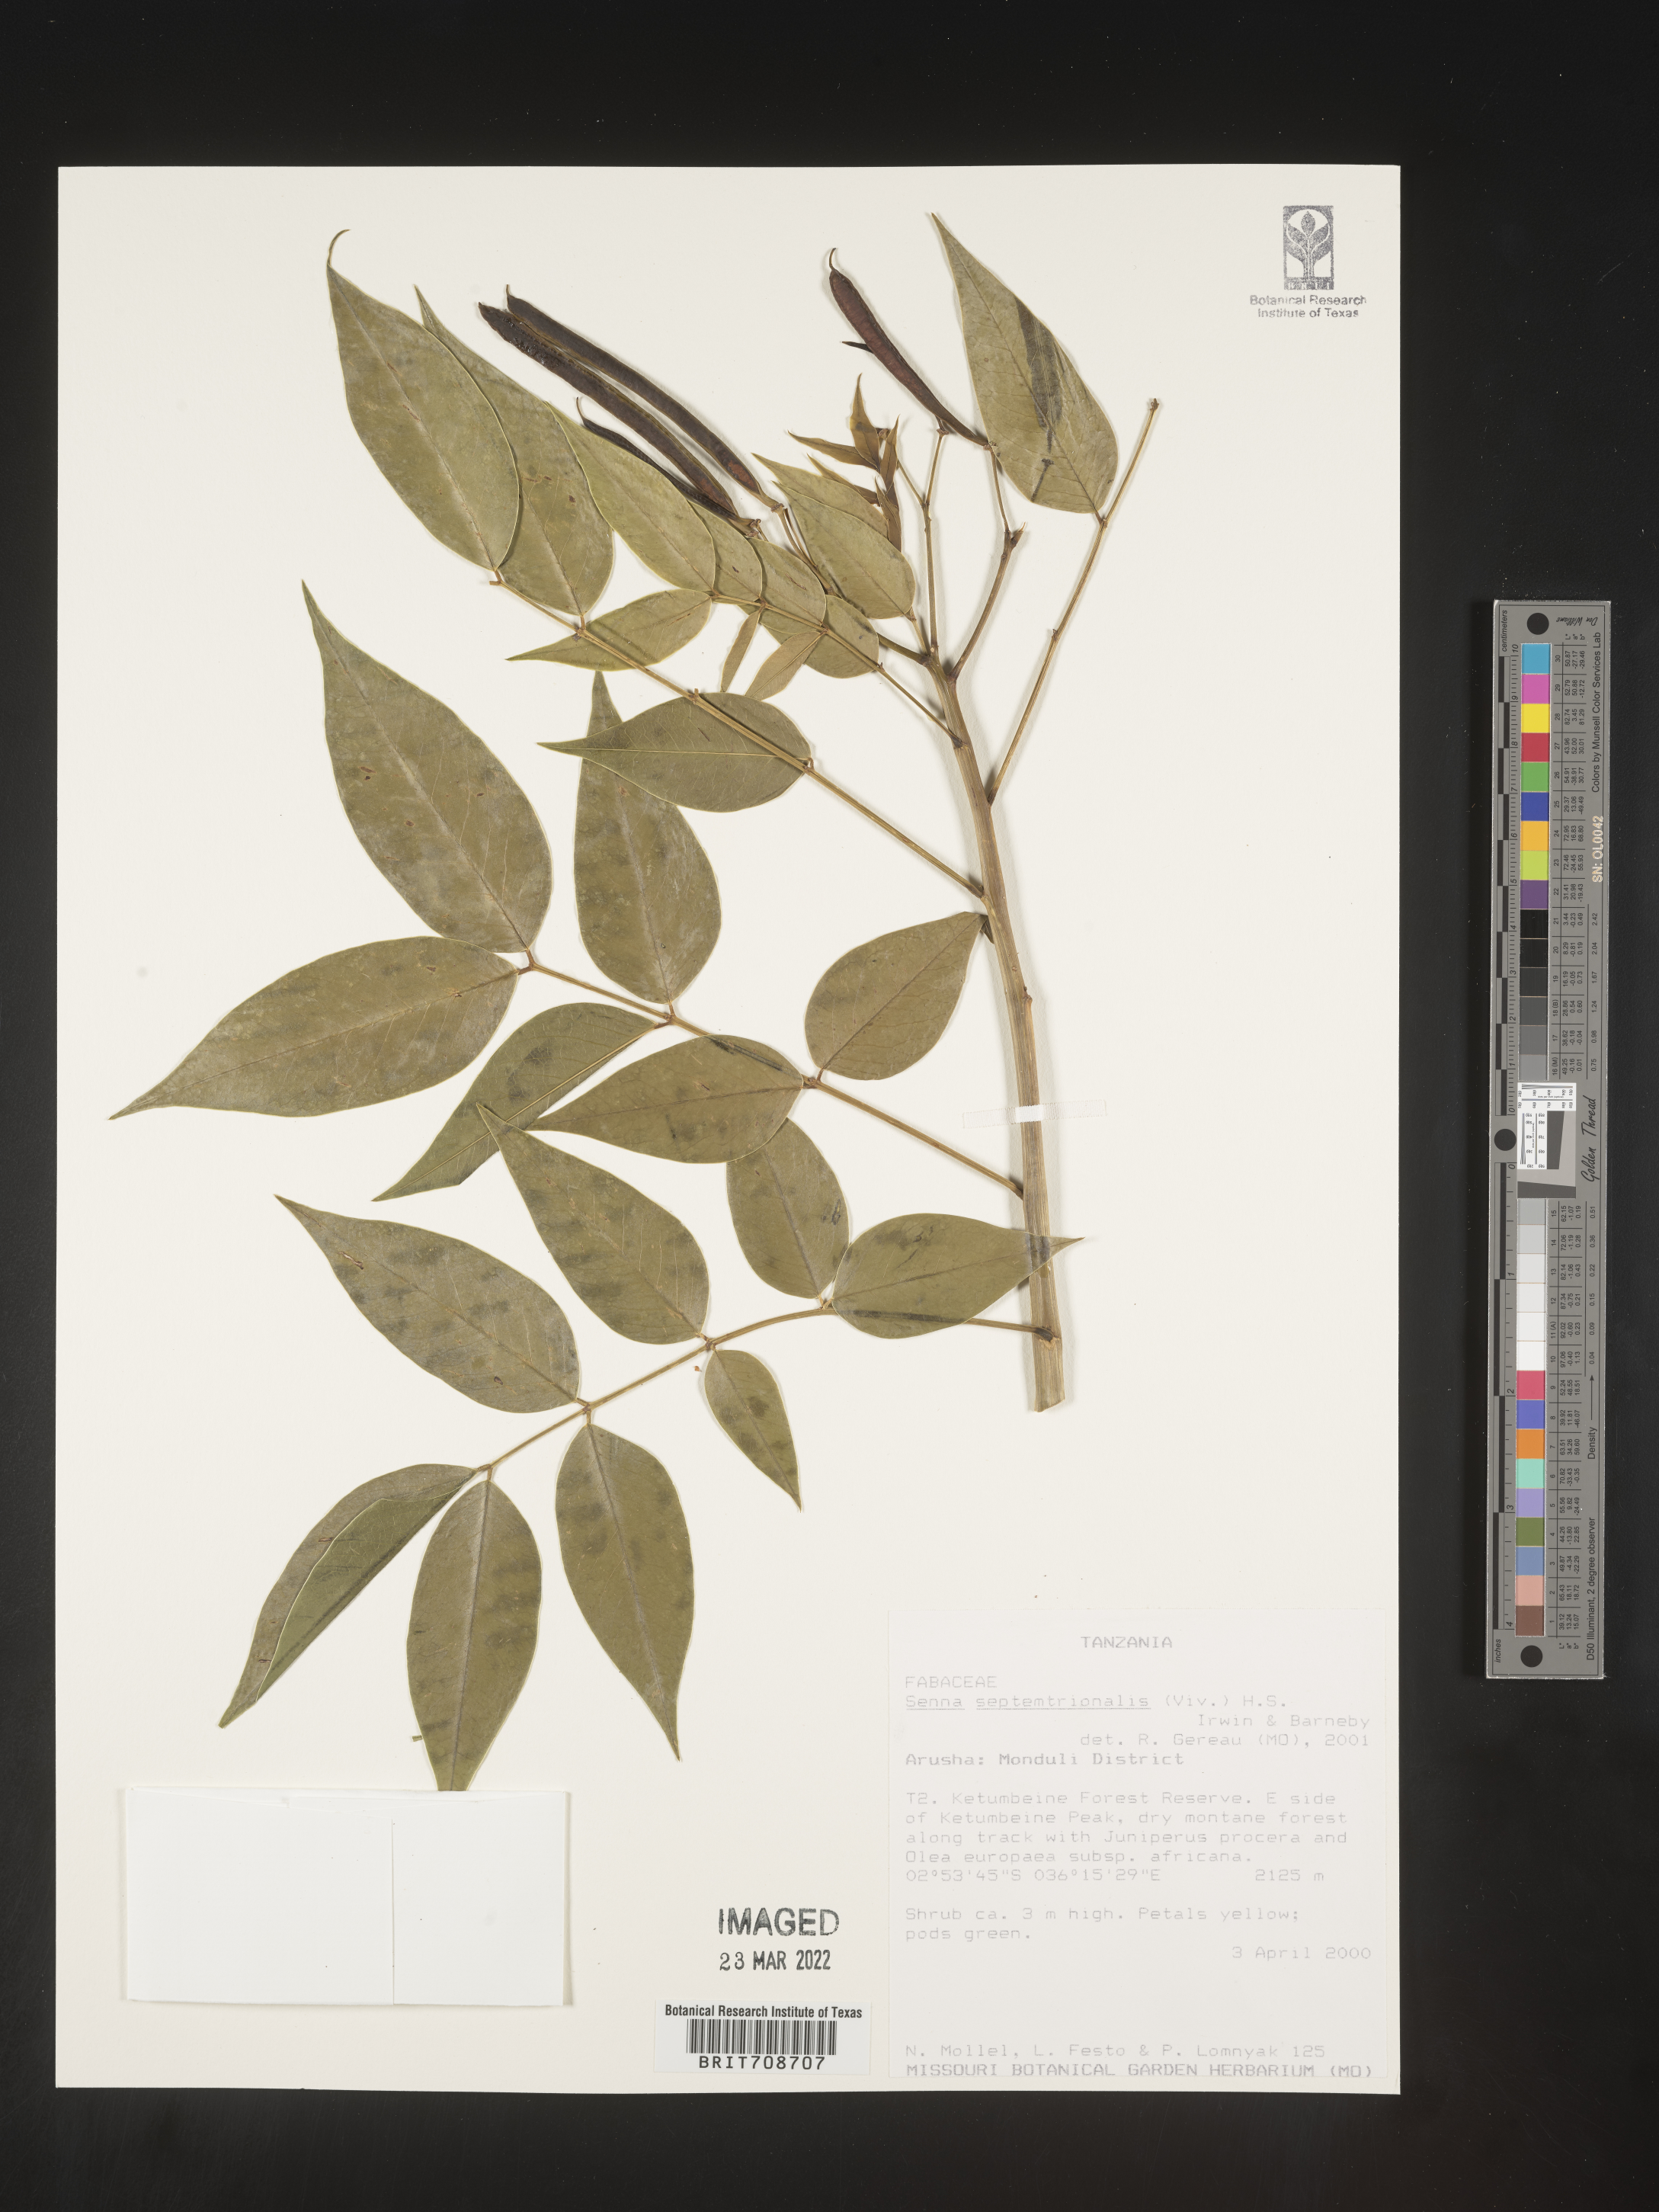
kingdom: Plantae
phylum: Tracheophyta
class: Magnoliopsida
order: Fabales
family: Fabaceae
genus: Senna
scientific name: Senna
